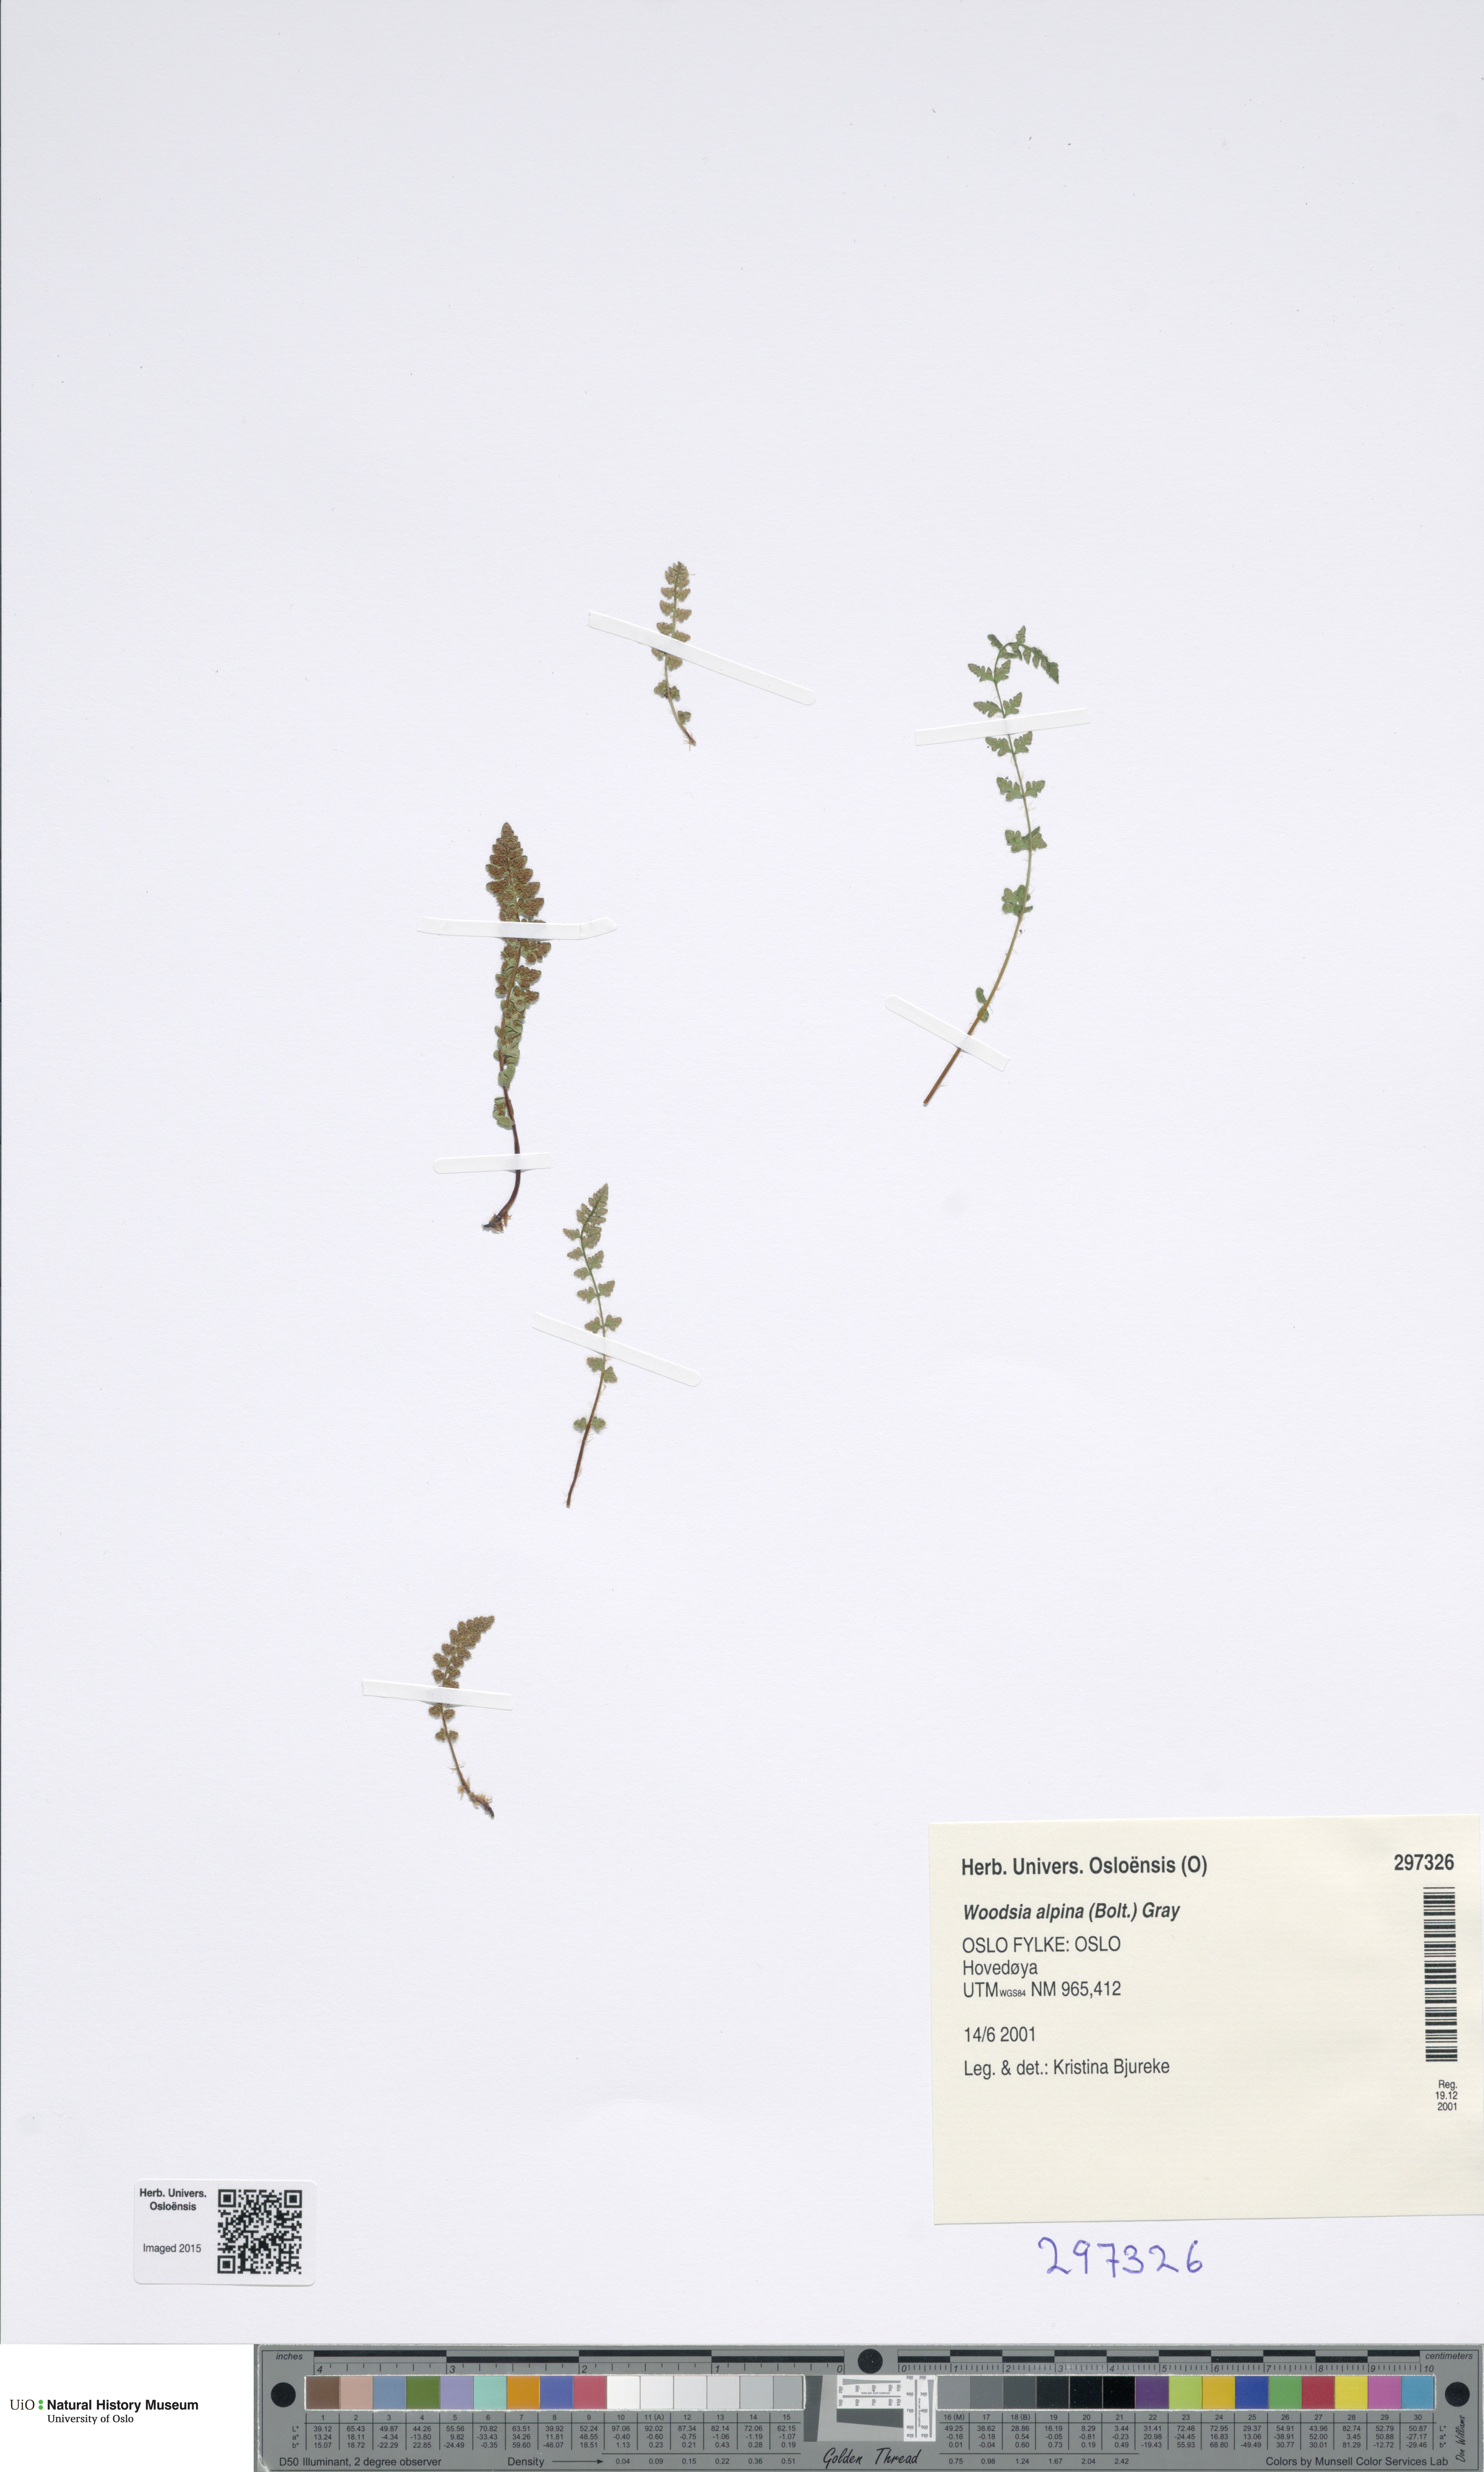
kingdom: Plantae
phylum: Tracheophyta
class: Polypodiopsida
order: Polypodiales
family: Woodsiaceae
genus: Woodsia
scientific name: Woodsia alpina
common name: Alpine woodsia
